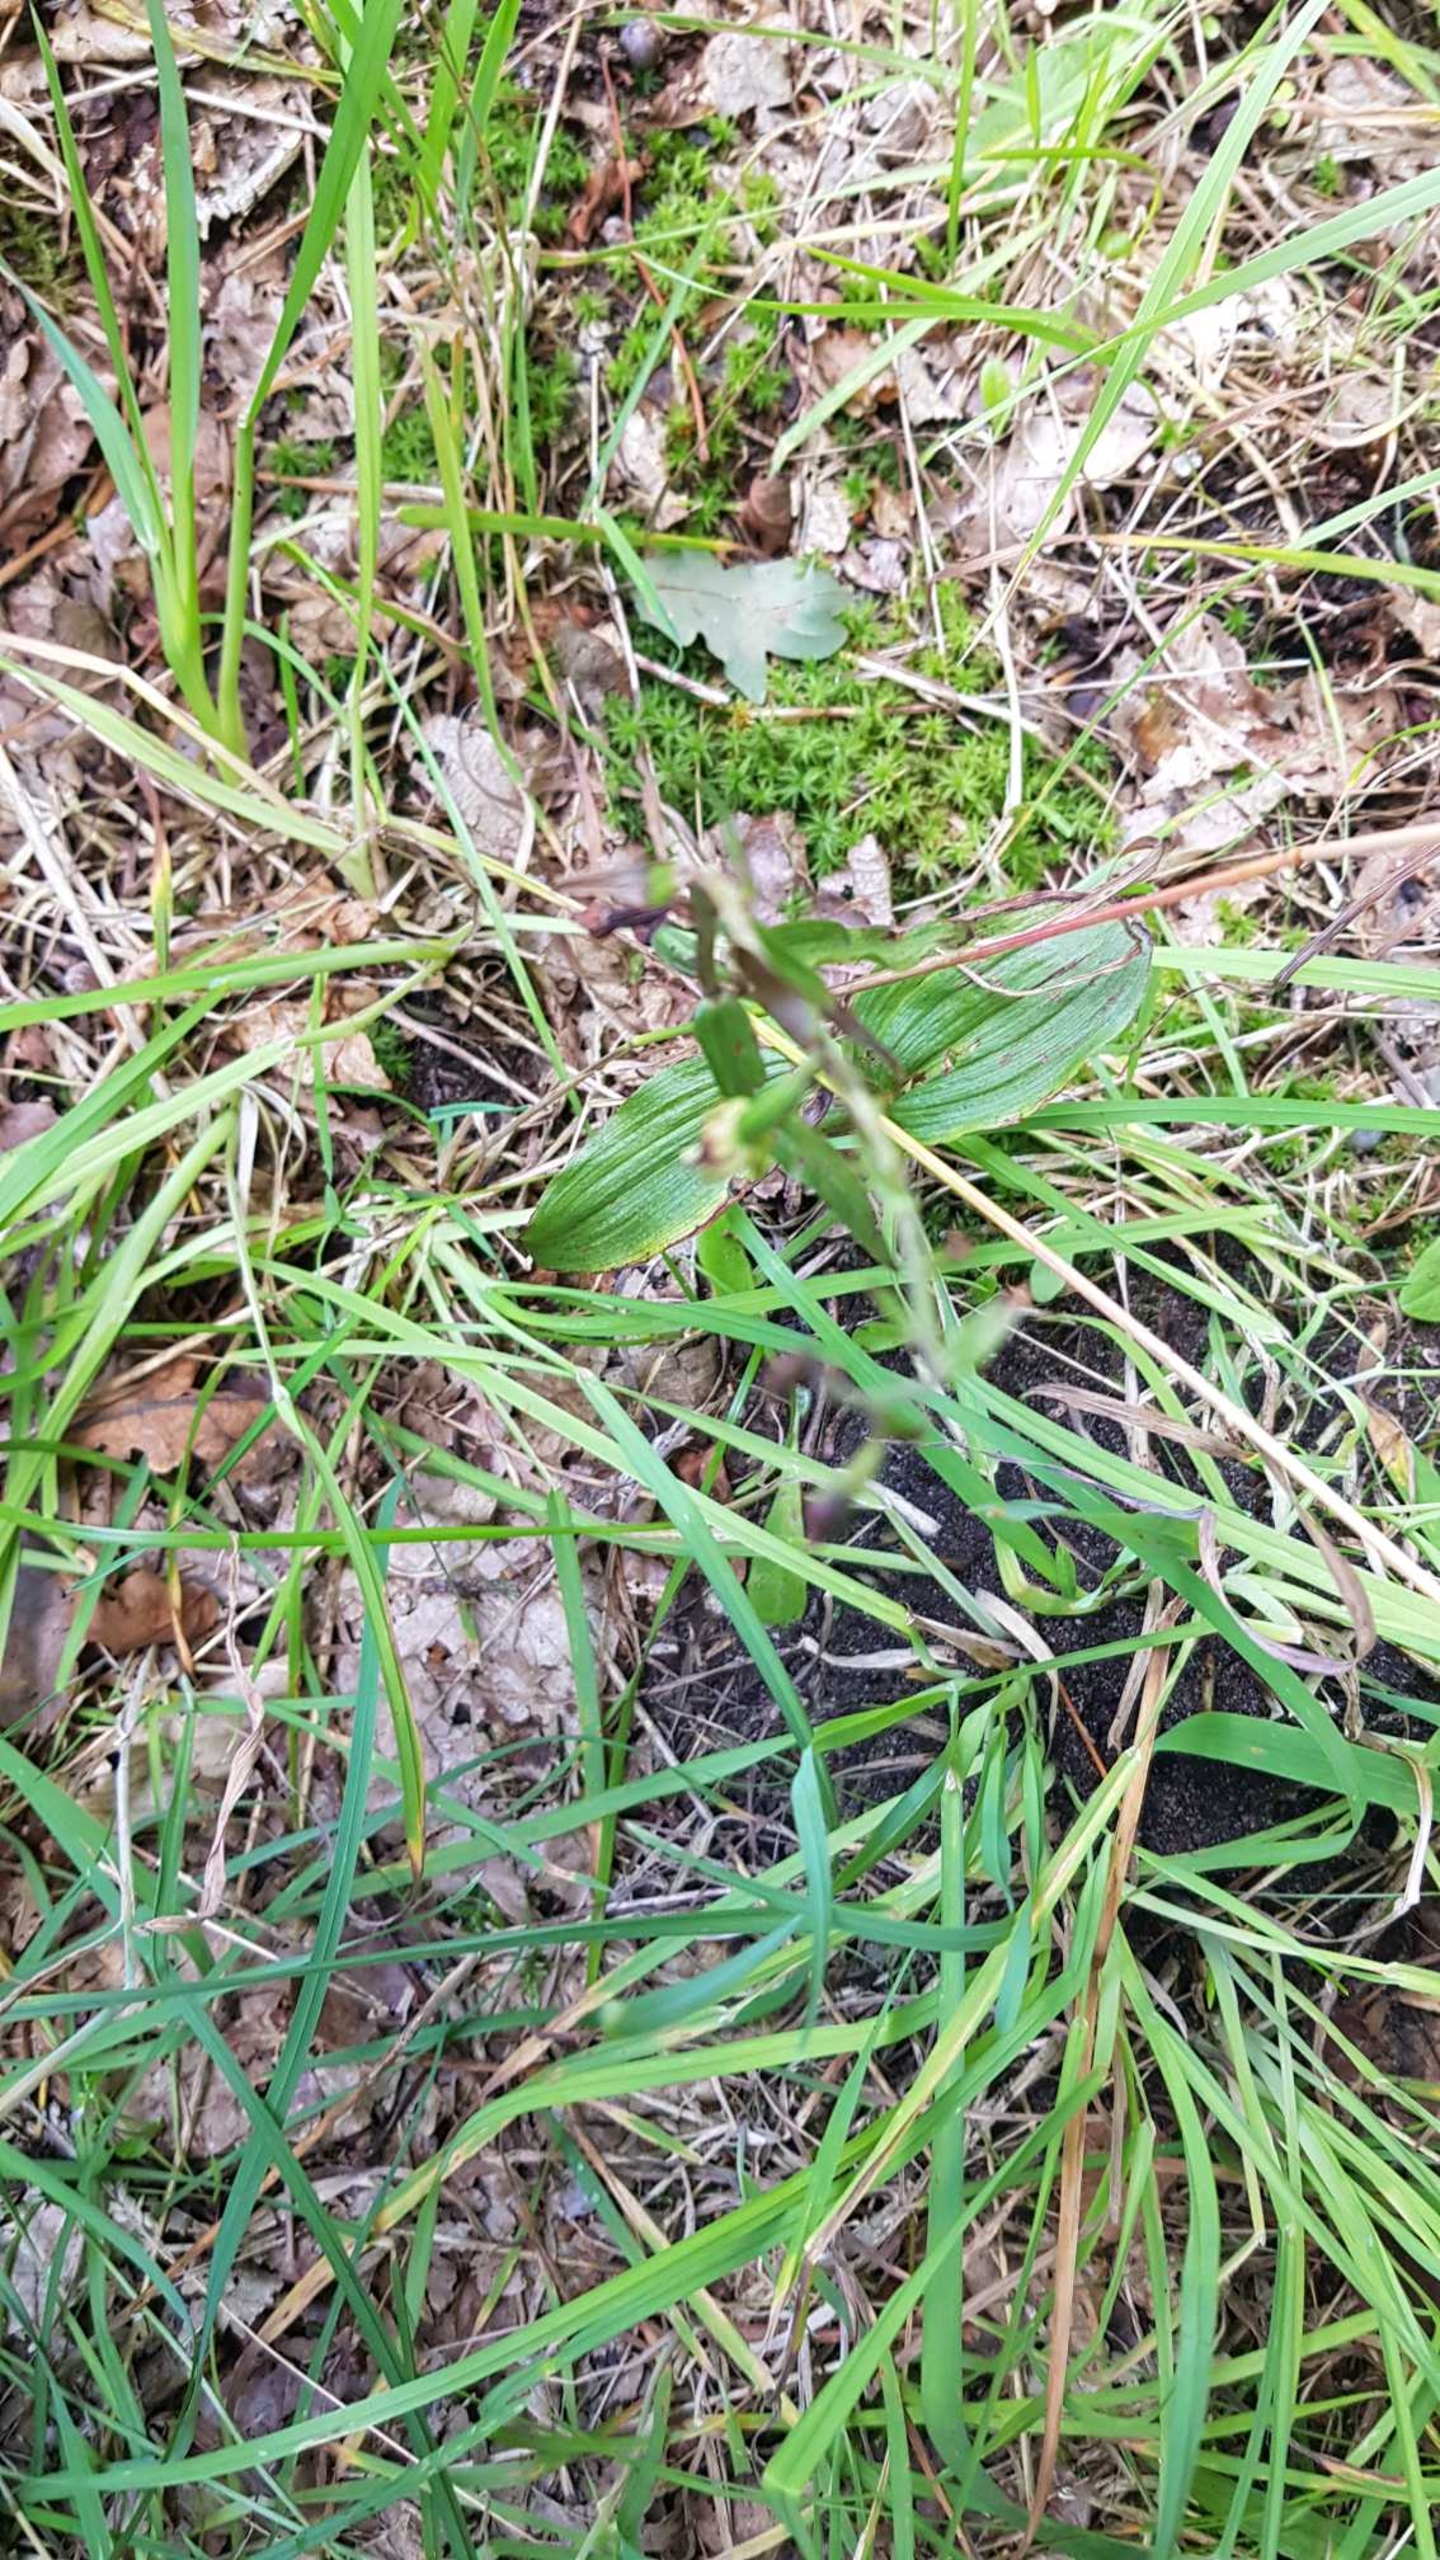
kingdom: Plantae
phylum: Tracheophyta
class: Liliopsida
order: Asparagales
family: Orchidaceae
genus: Epipactis
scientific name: Epipactis helleborine
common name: Skov-hullæbe
